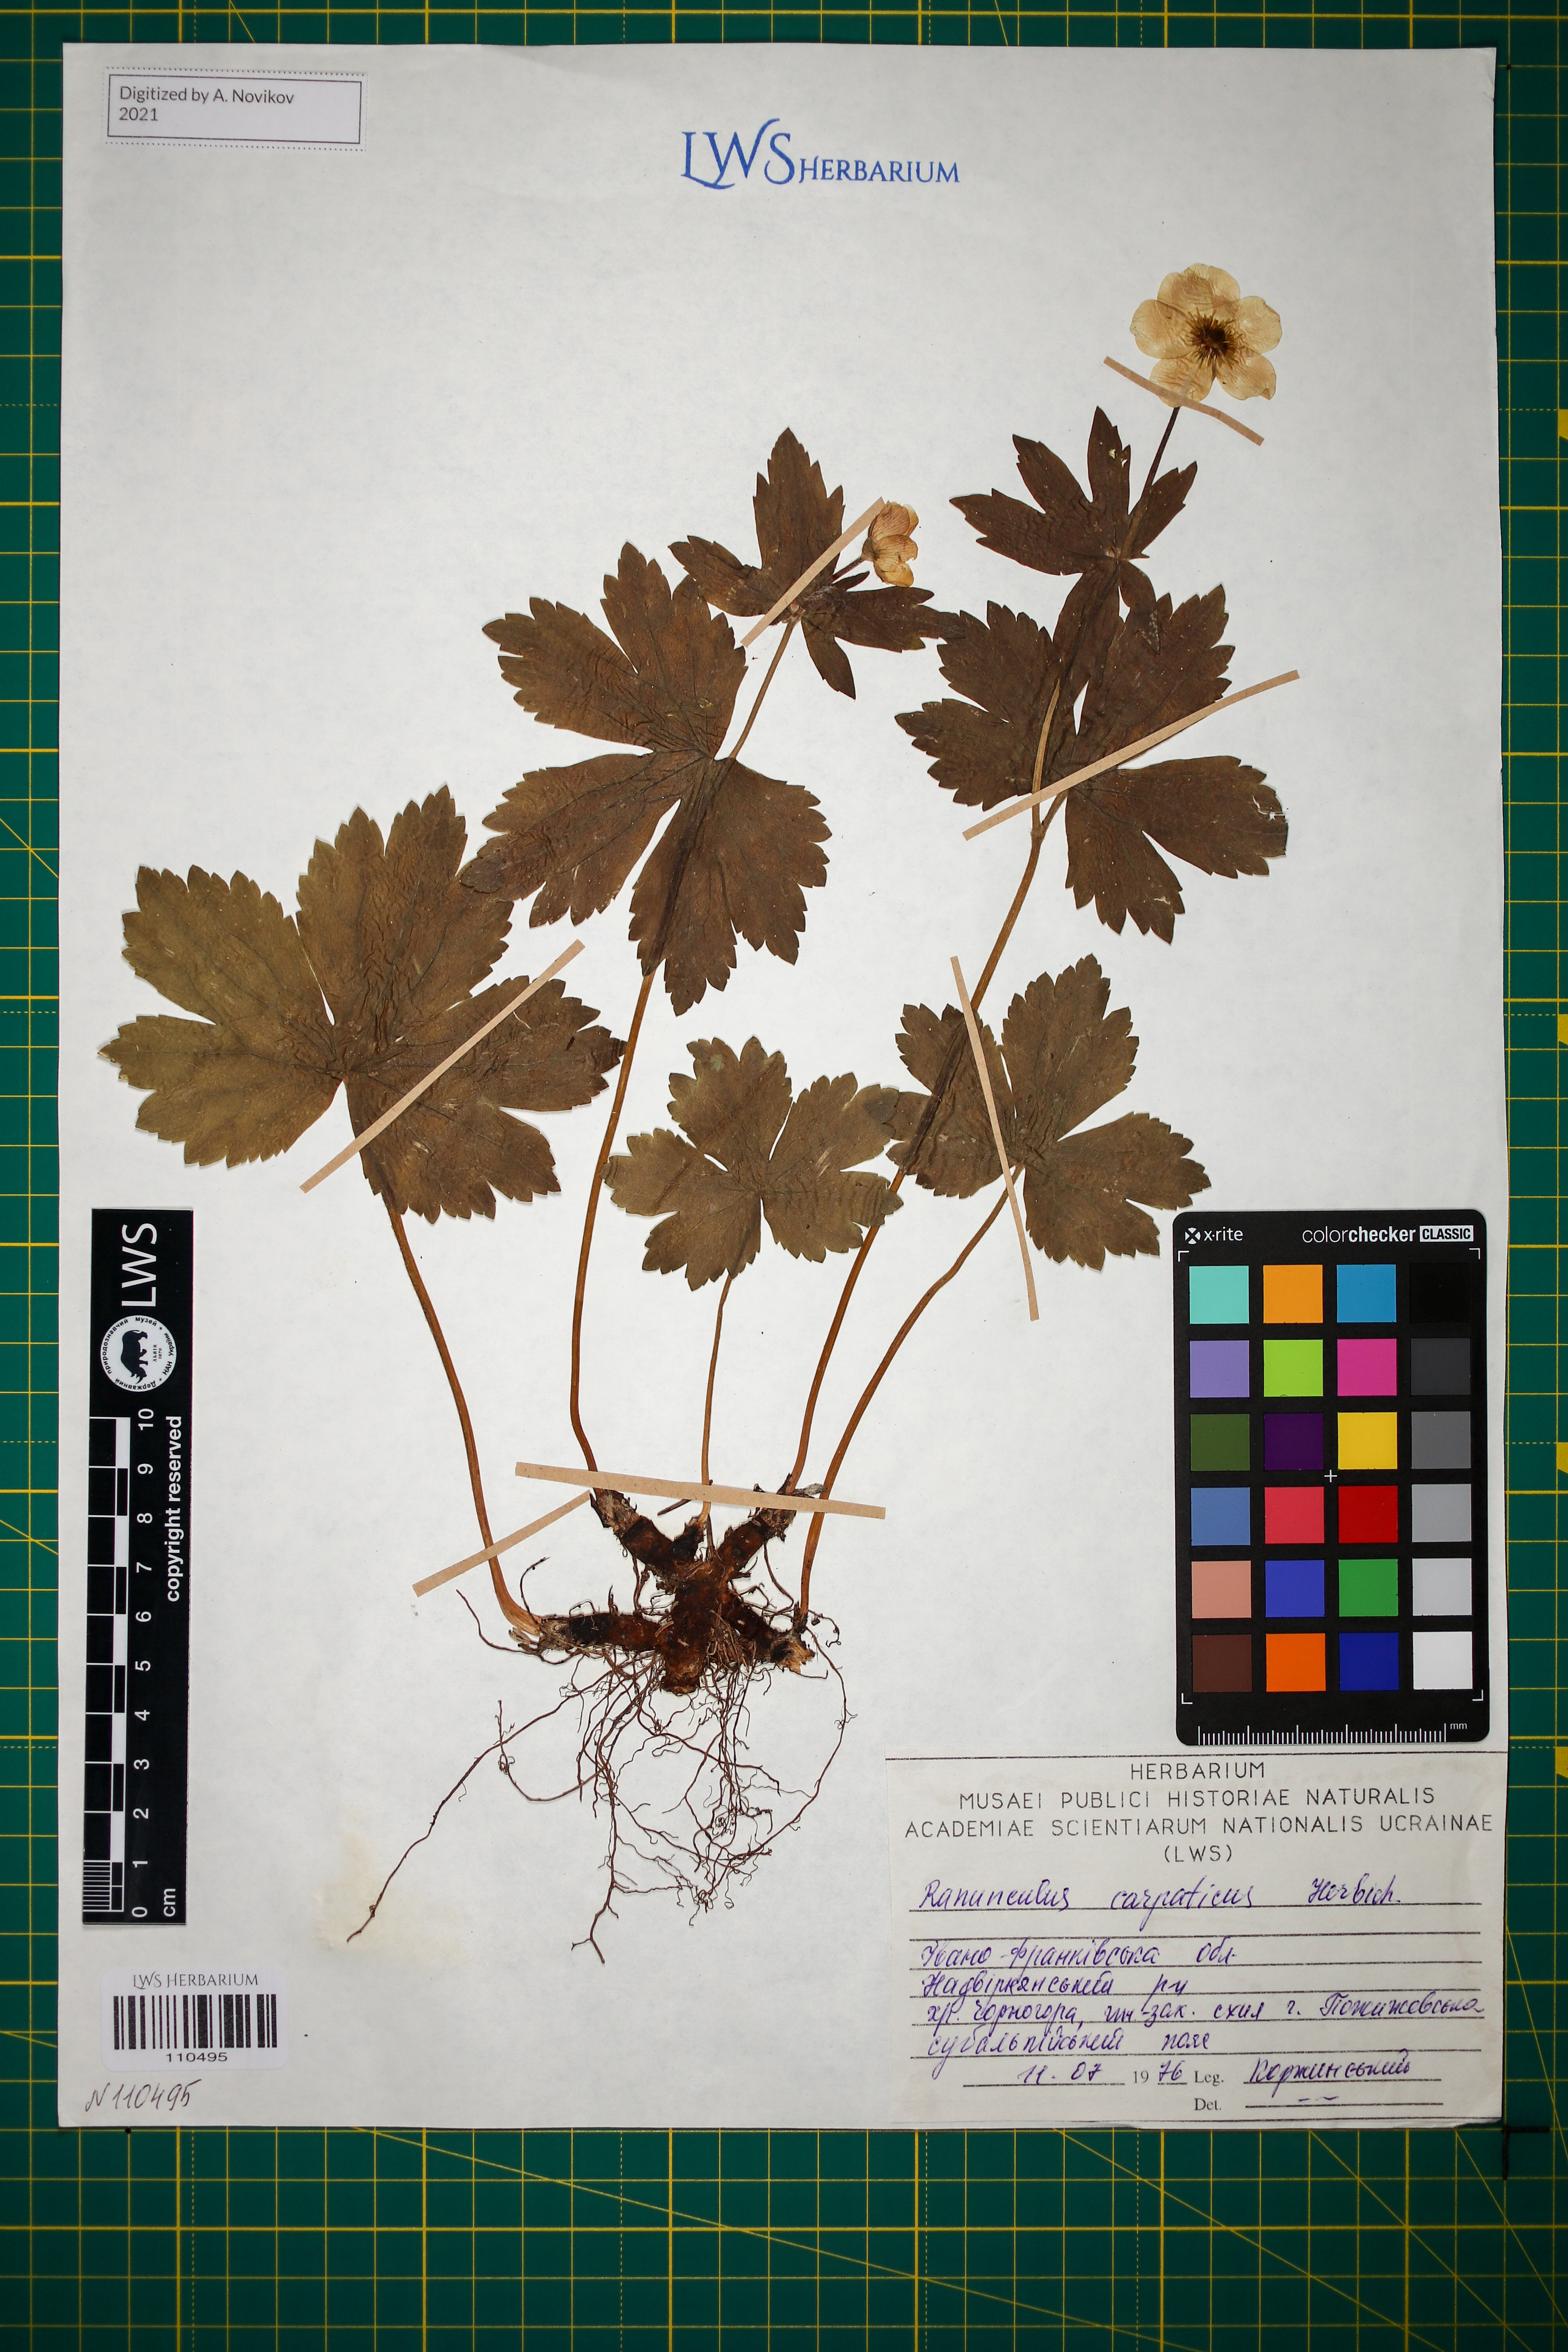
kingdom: Plantae
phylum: Tracheophyta
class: Magnoliopsida
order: Ranunculales
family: Ranunculaceae
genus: Ranunculus
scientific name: Ranunculus carpaticus
